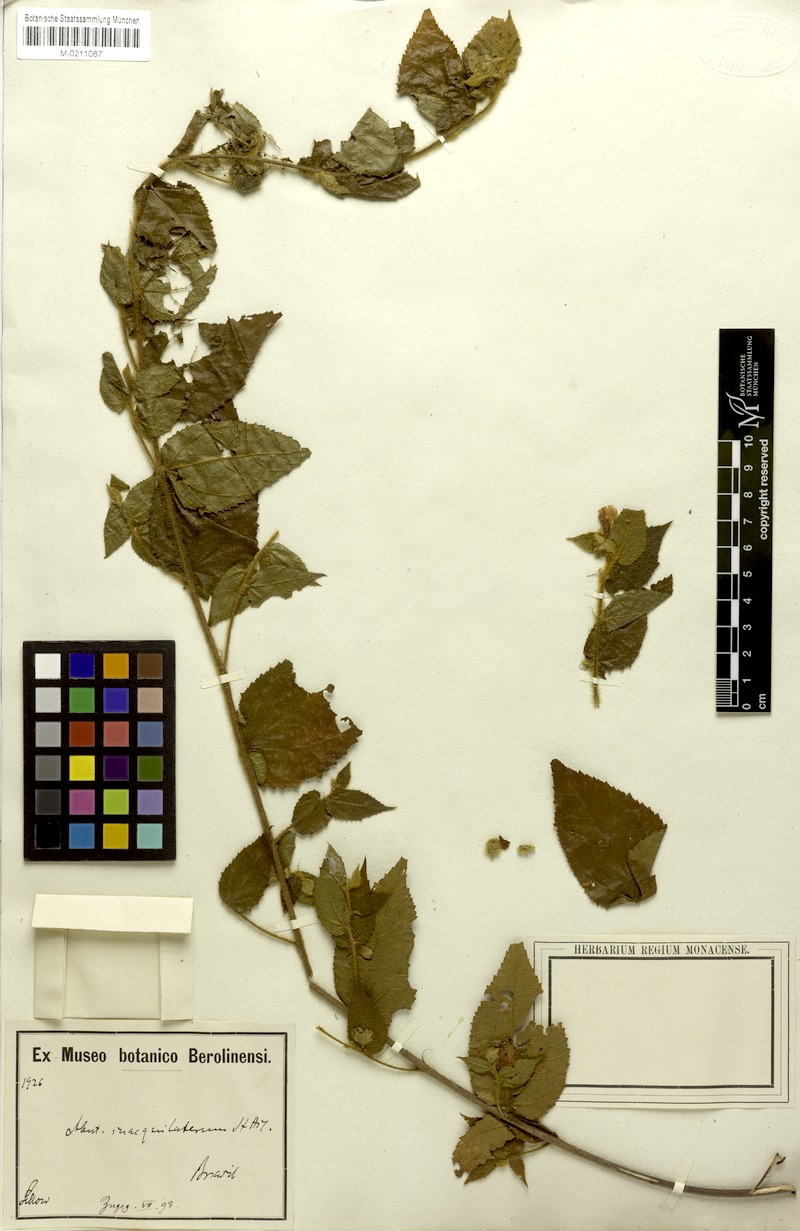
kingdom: Plantae
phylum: Tracheophyta
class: Magnoliopsida
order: Malvales
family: Malvaceae
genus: Abutilon
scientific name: Abutilon inaequilaterum
